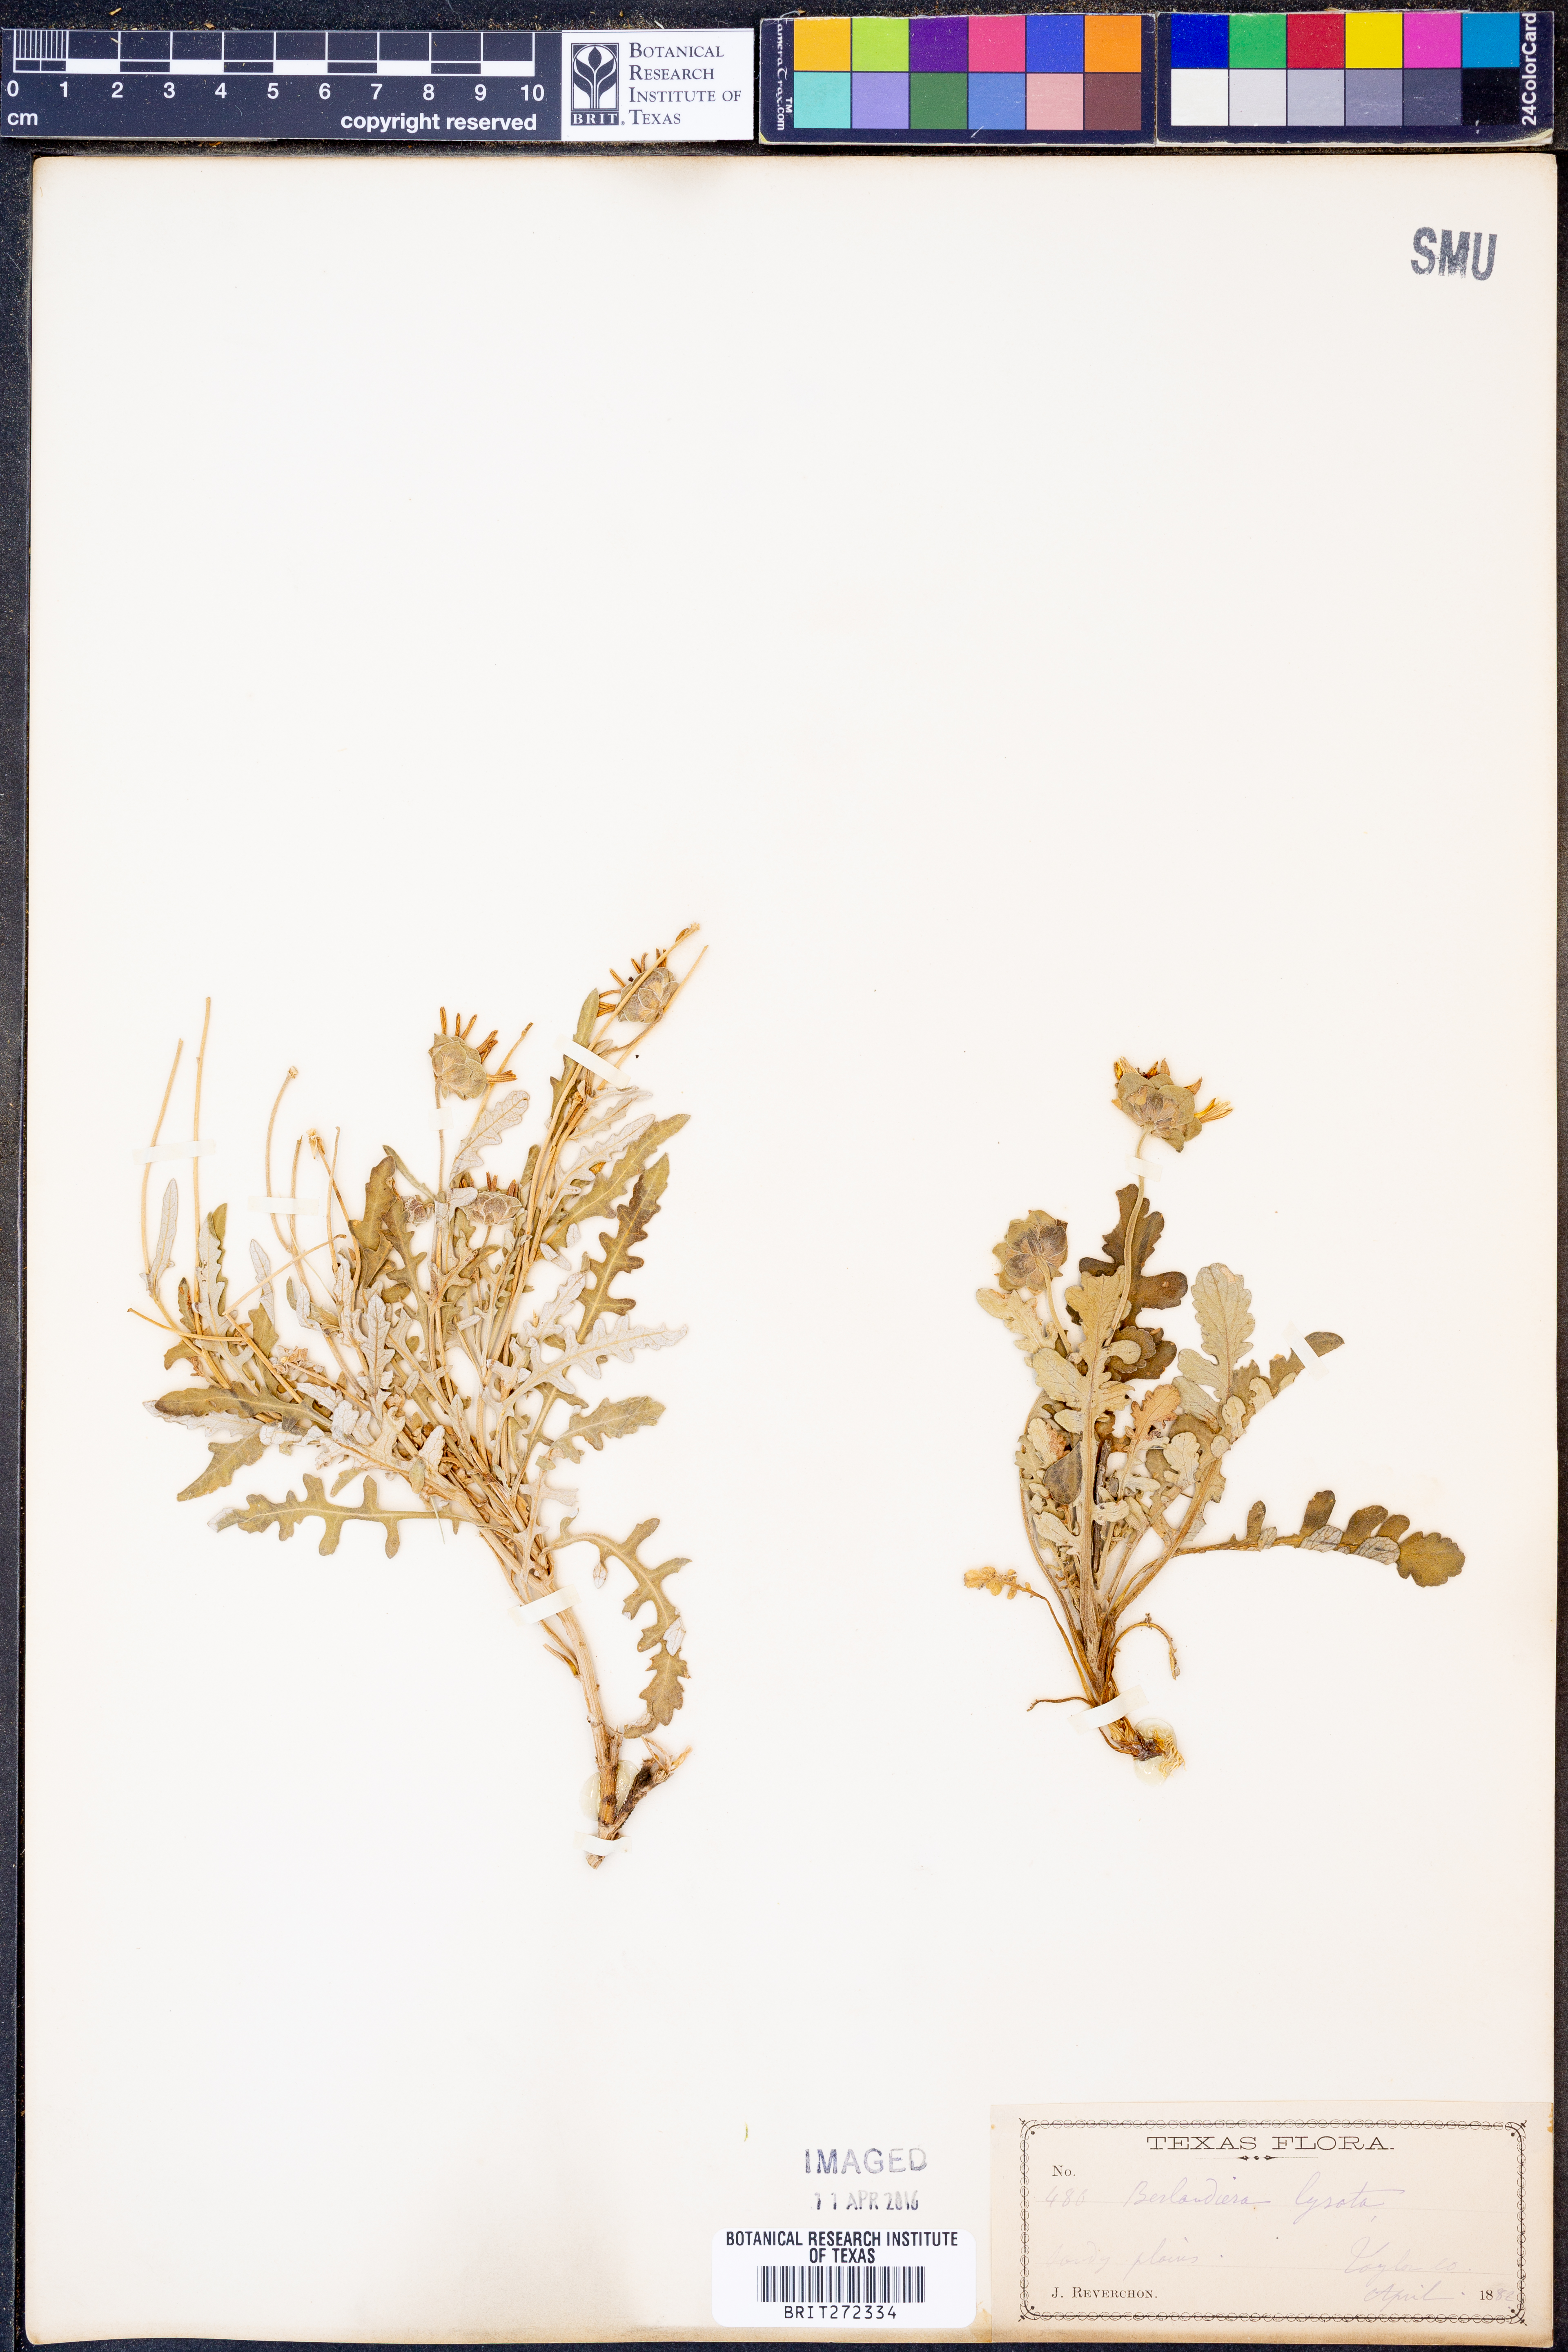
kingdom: Plantae
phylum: Tracheophyta
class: Magnoliopsida
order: Asterales
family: Asteraceae
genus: Berlandiera
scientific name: Berlandiera lyrata
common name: Chocolate-flower
